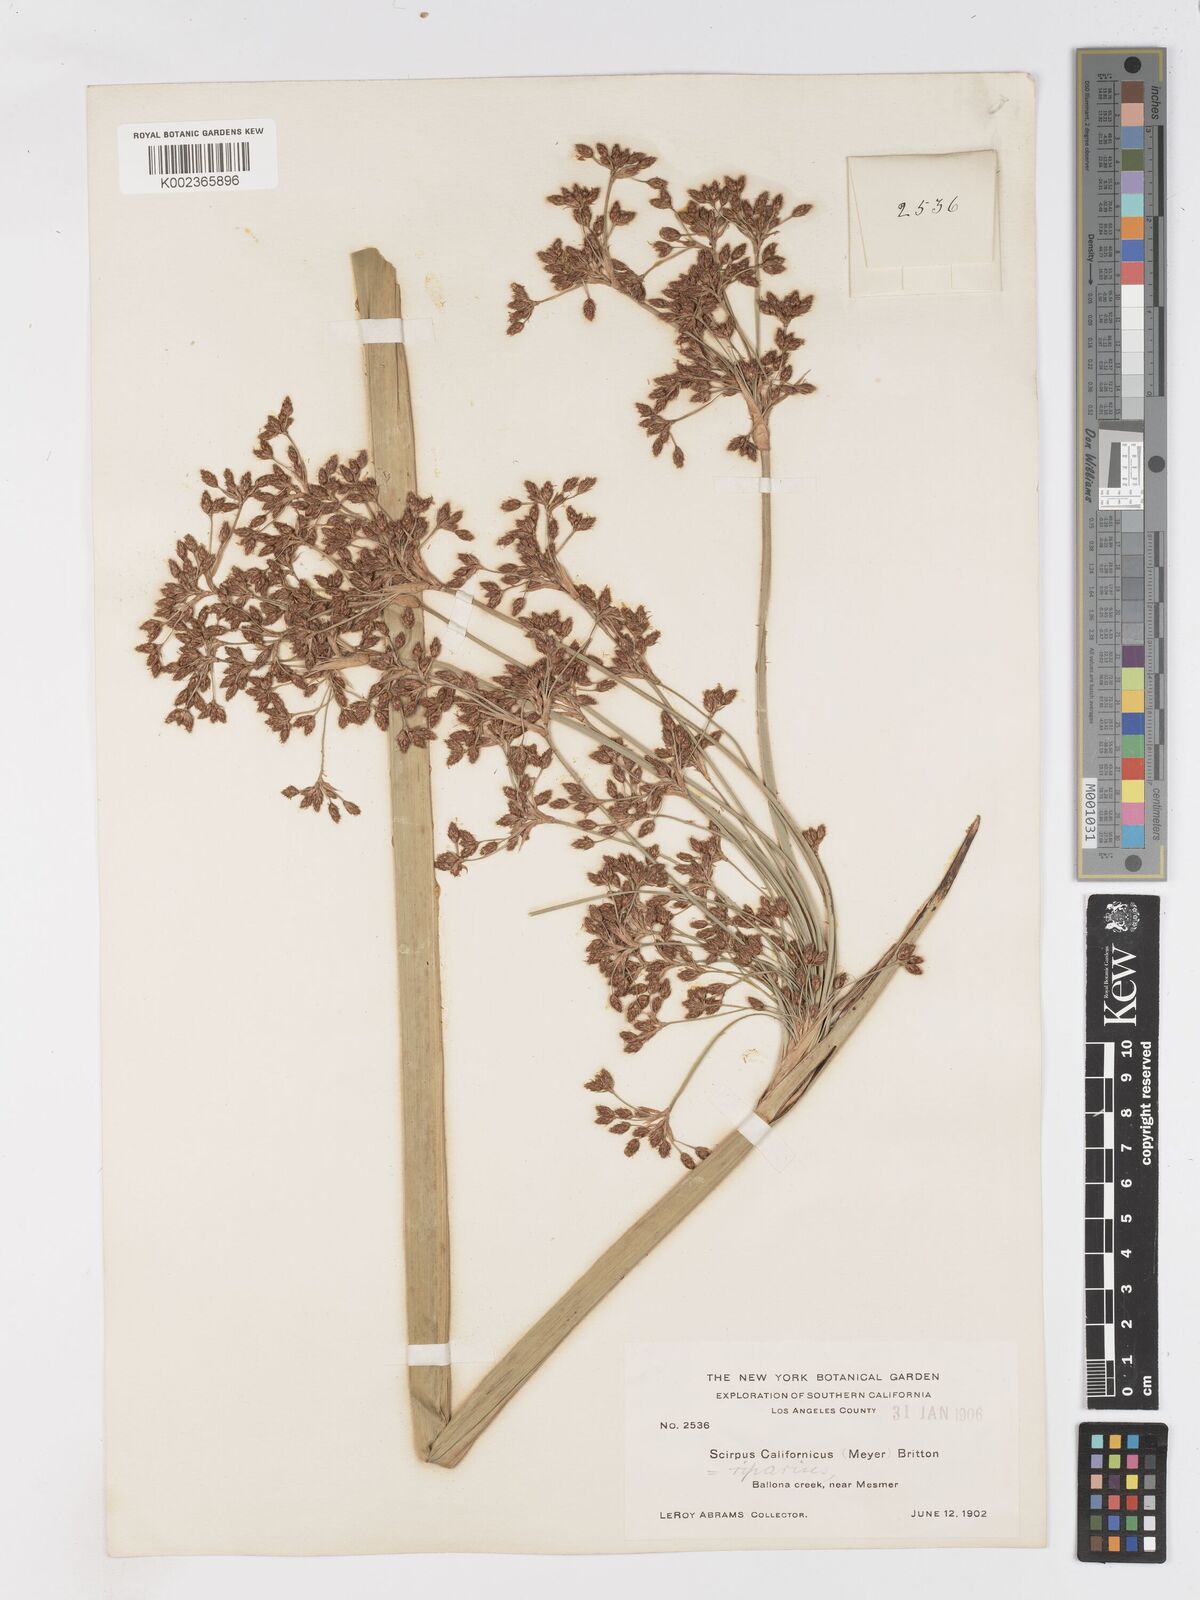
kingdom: Plantae
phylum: Tracheophyta
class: Liliopsida
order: Poales
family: Cyperaceae
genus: Schoenoplectus
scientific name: Schoenoplectus californicus
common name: California bulrush
